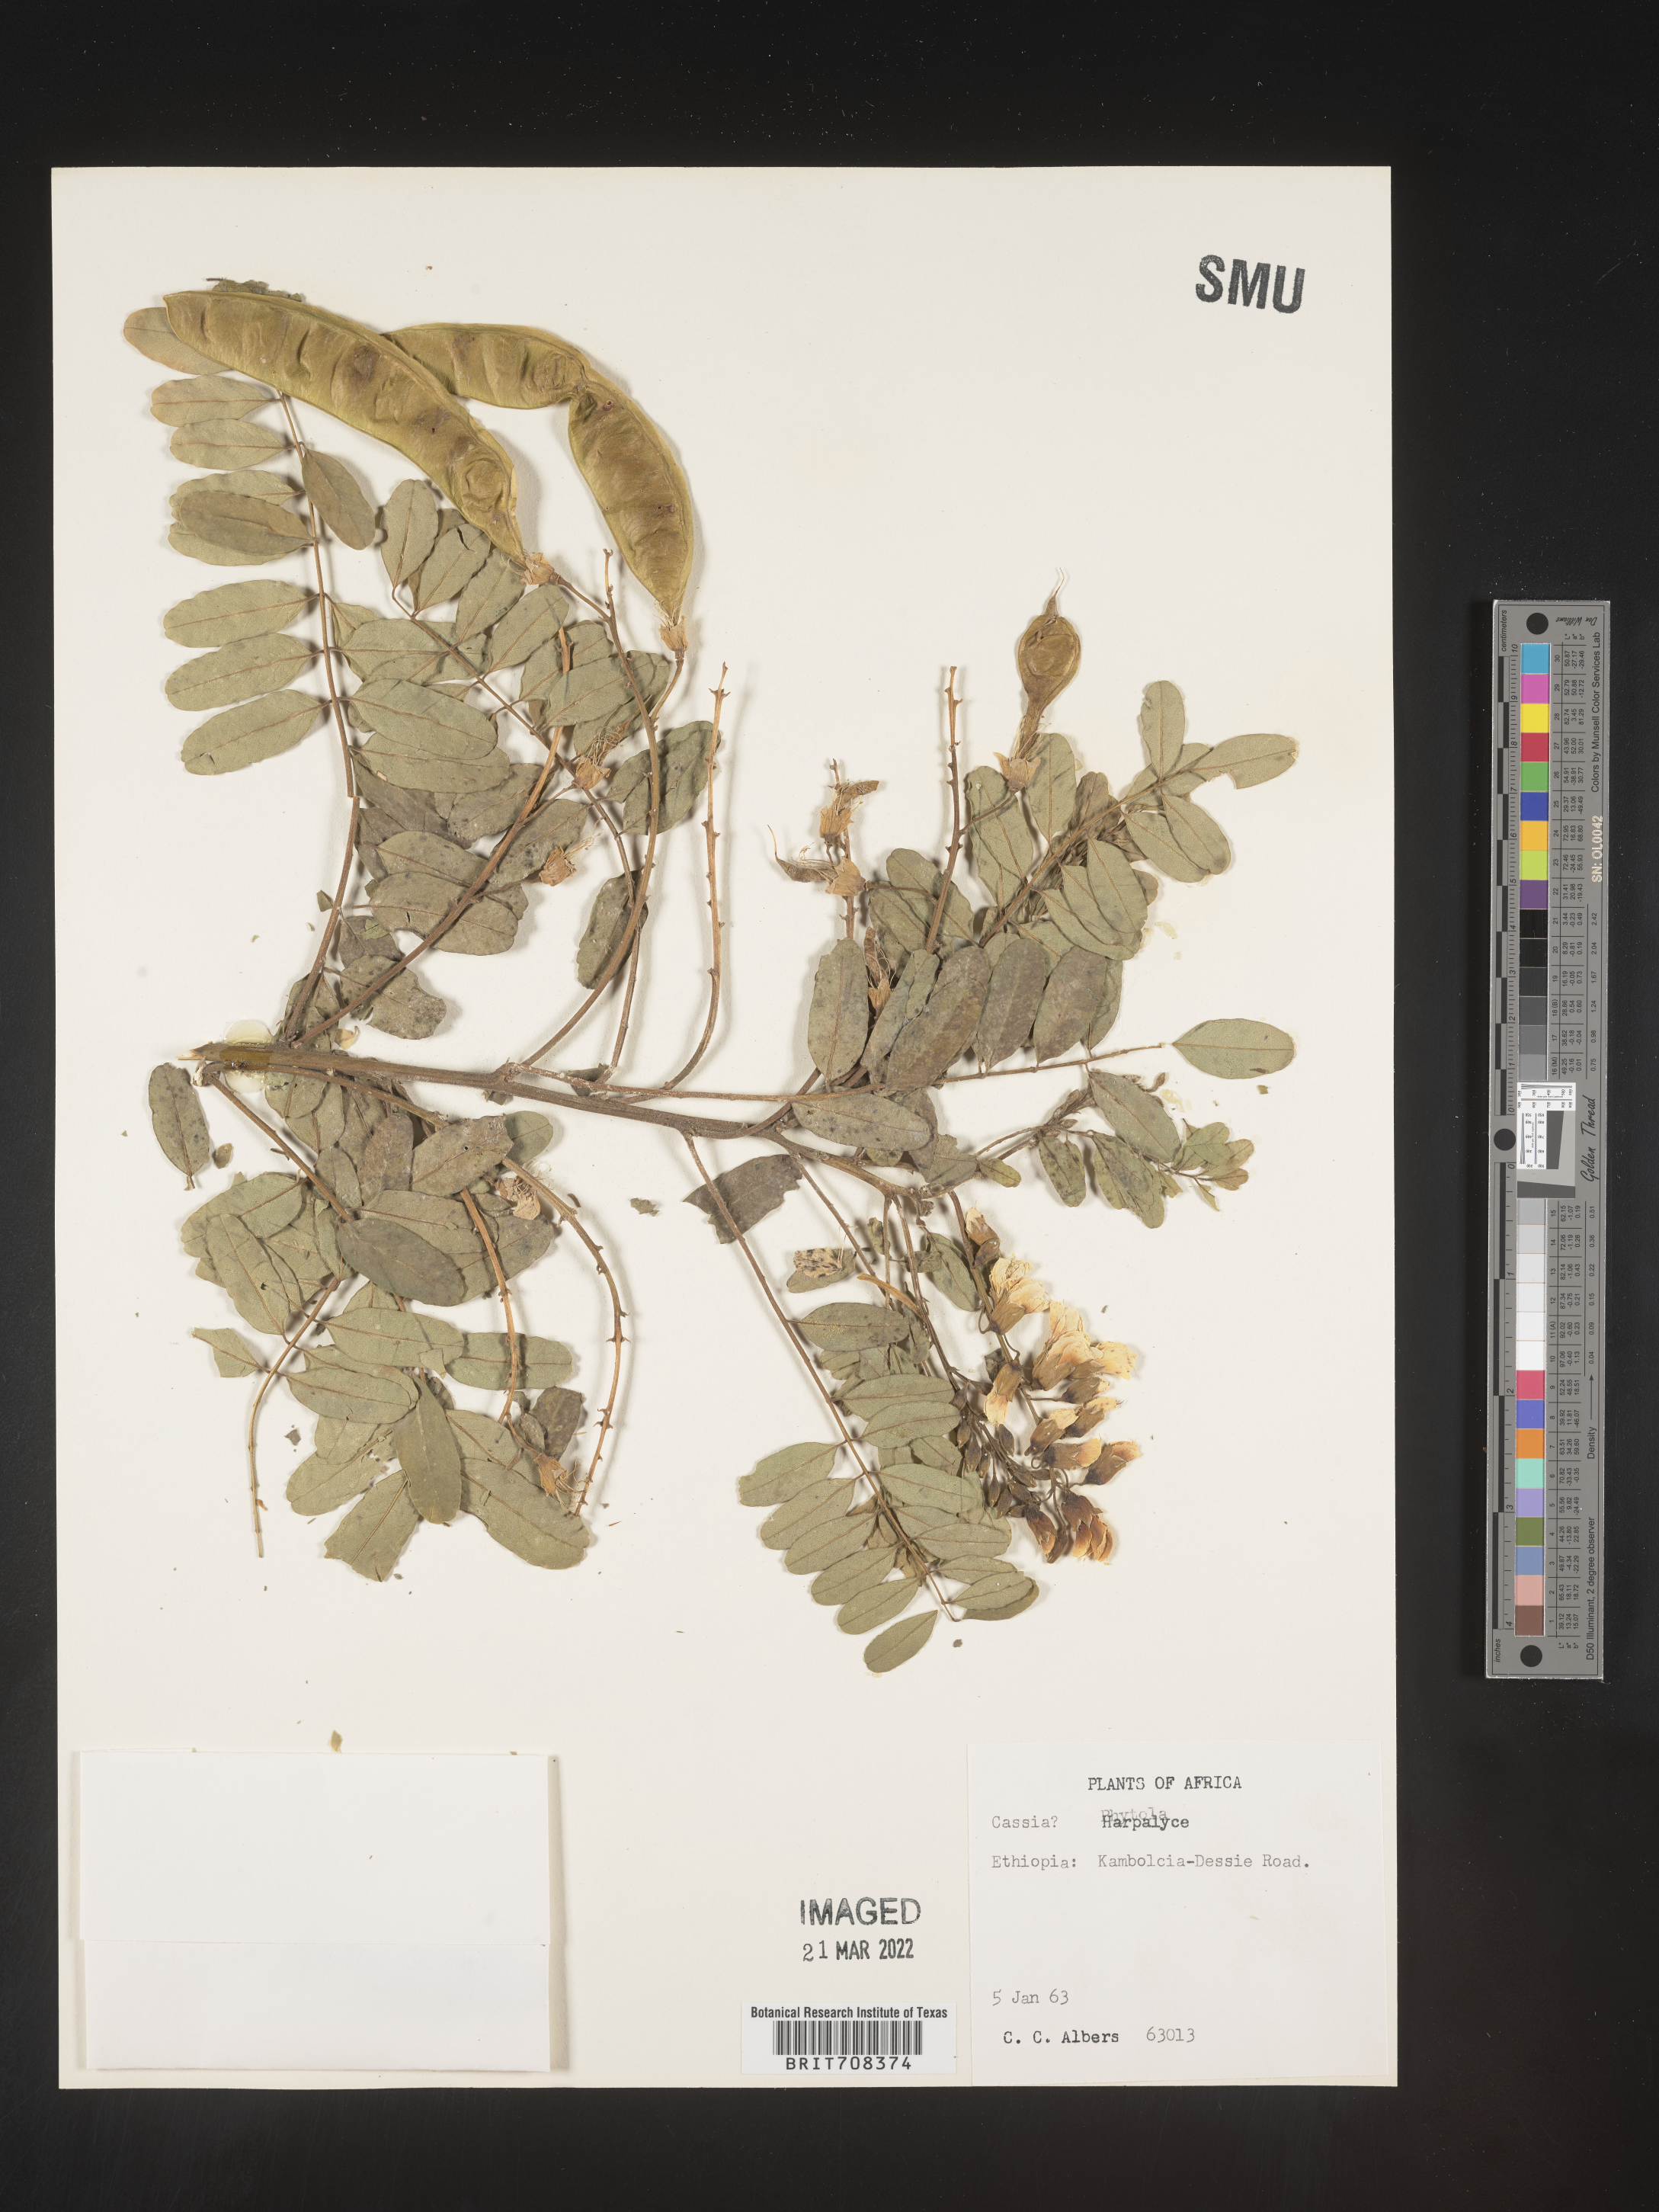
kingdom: Plantae
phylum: Tracheophyta
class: Magnoliopsida
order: Fabales
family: Fabaceae
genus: Harpalyce
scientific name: Harpalyce
